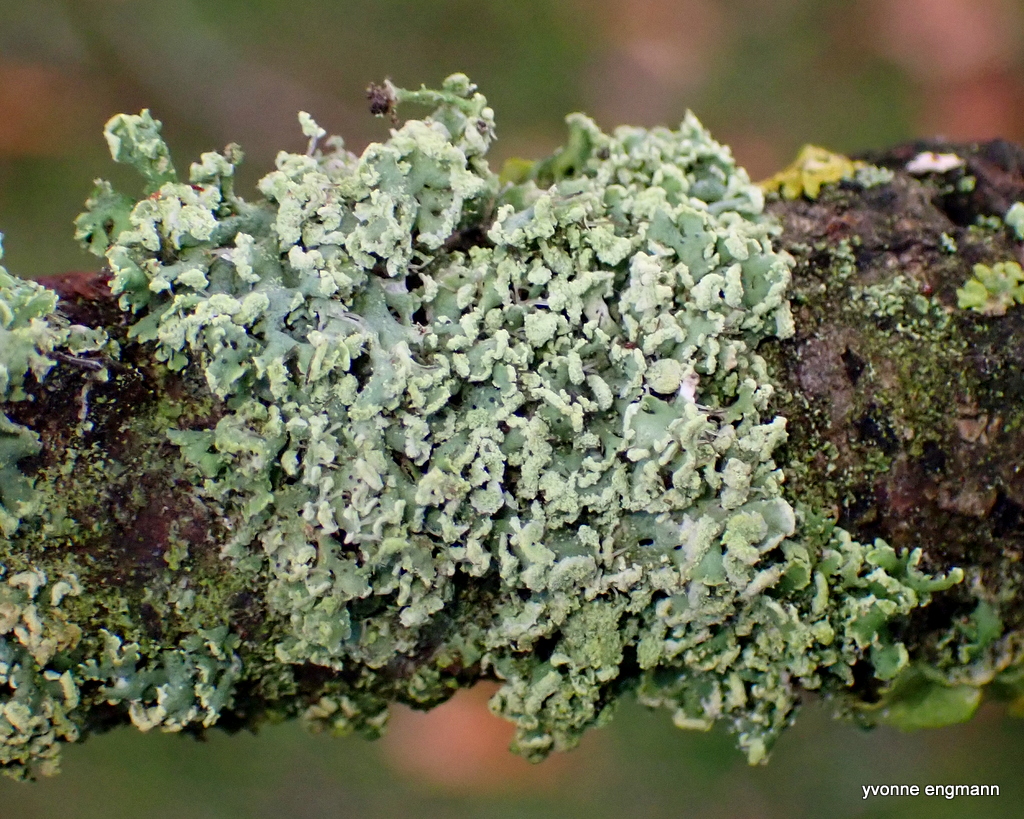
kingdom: Fungi
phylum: Ascomycota
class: Lecanoromycetes
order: Caliciales
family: Physciaceae
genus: Physcia
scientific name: Physcia tenella
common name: spæd rosetlav
